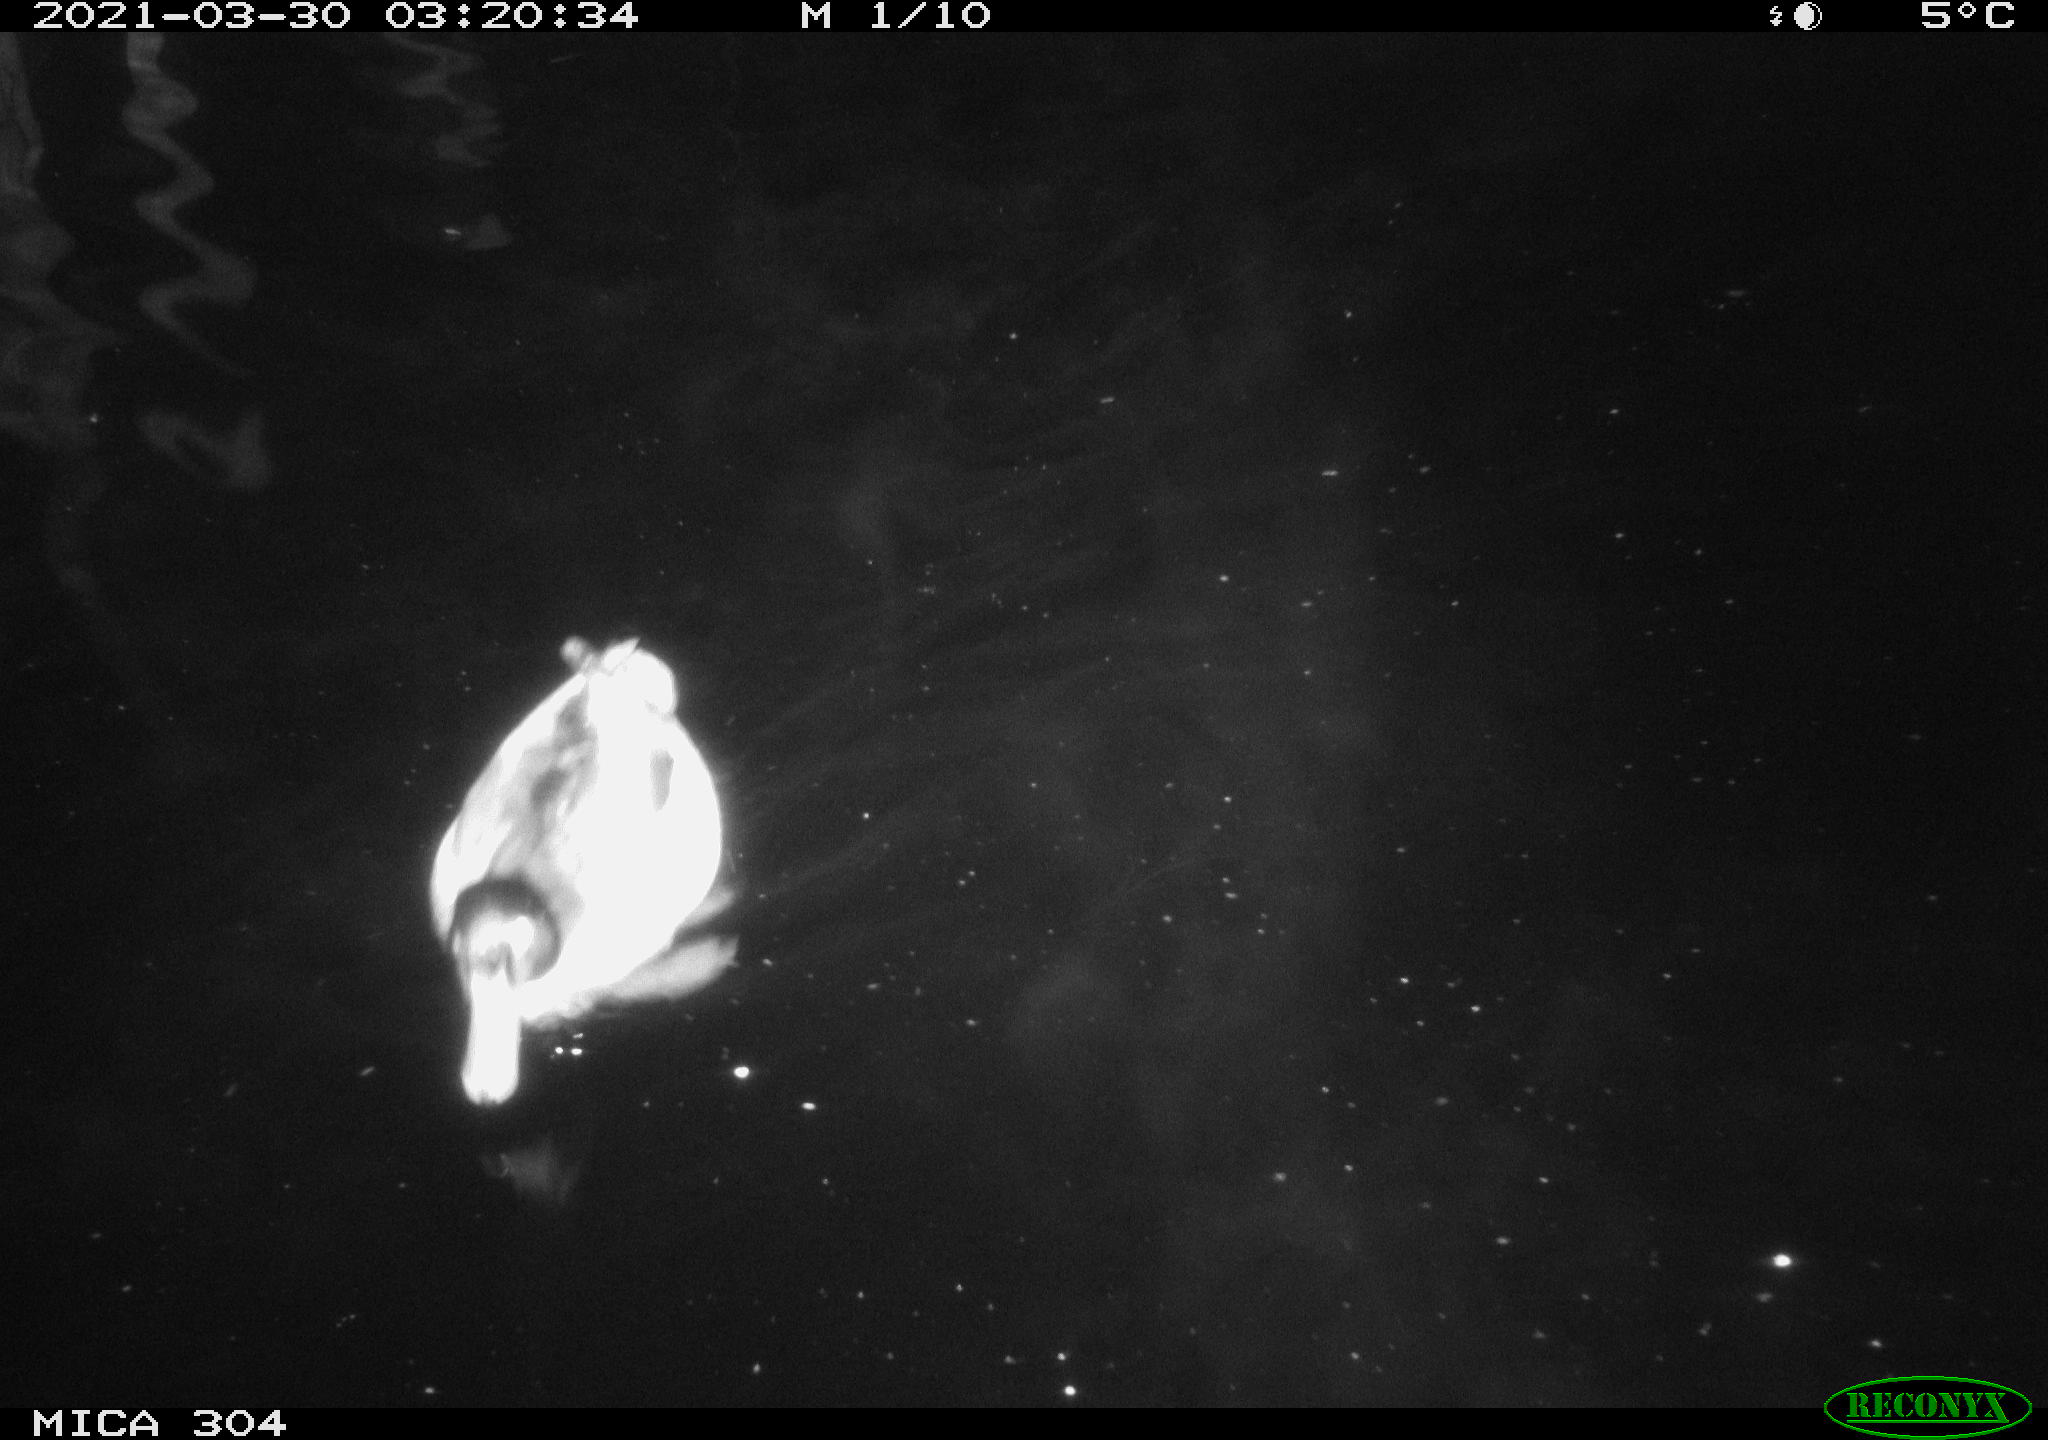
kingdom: Animalia
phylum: Chordata
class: Aves
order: Anseriformes
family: Anatidae
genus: Anas
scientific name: Anas platyrhynchos
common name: Mallard
